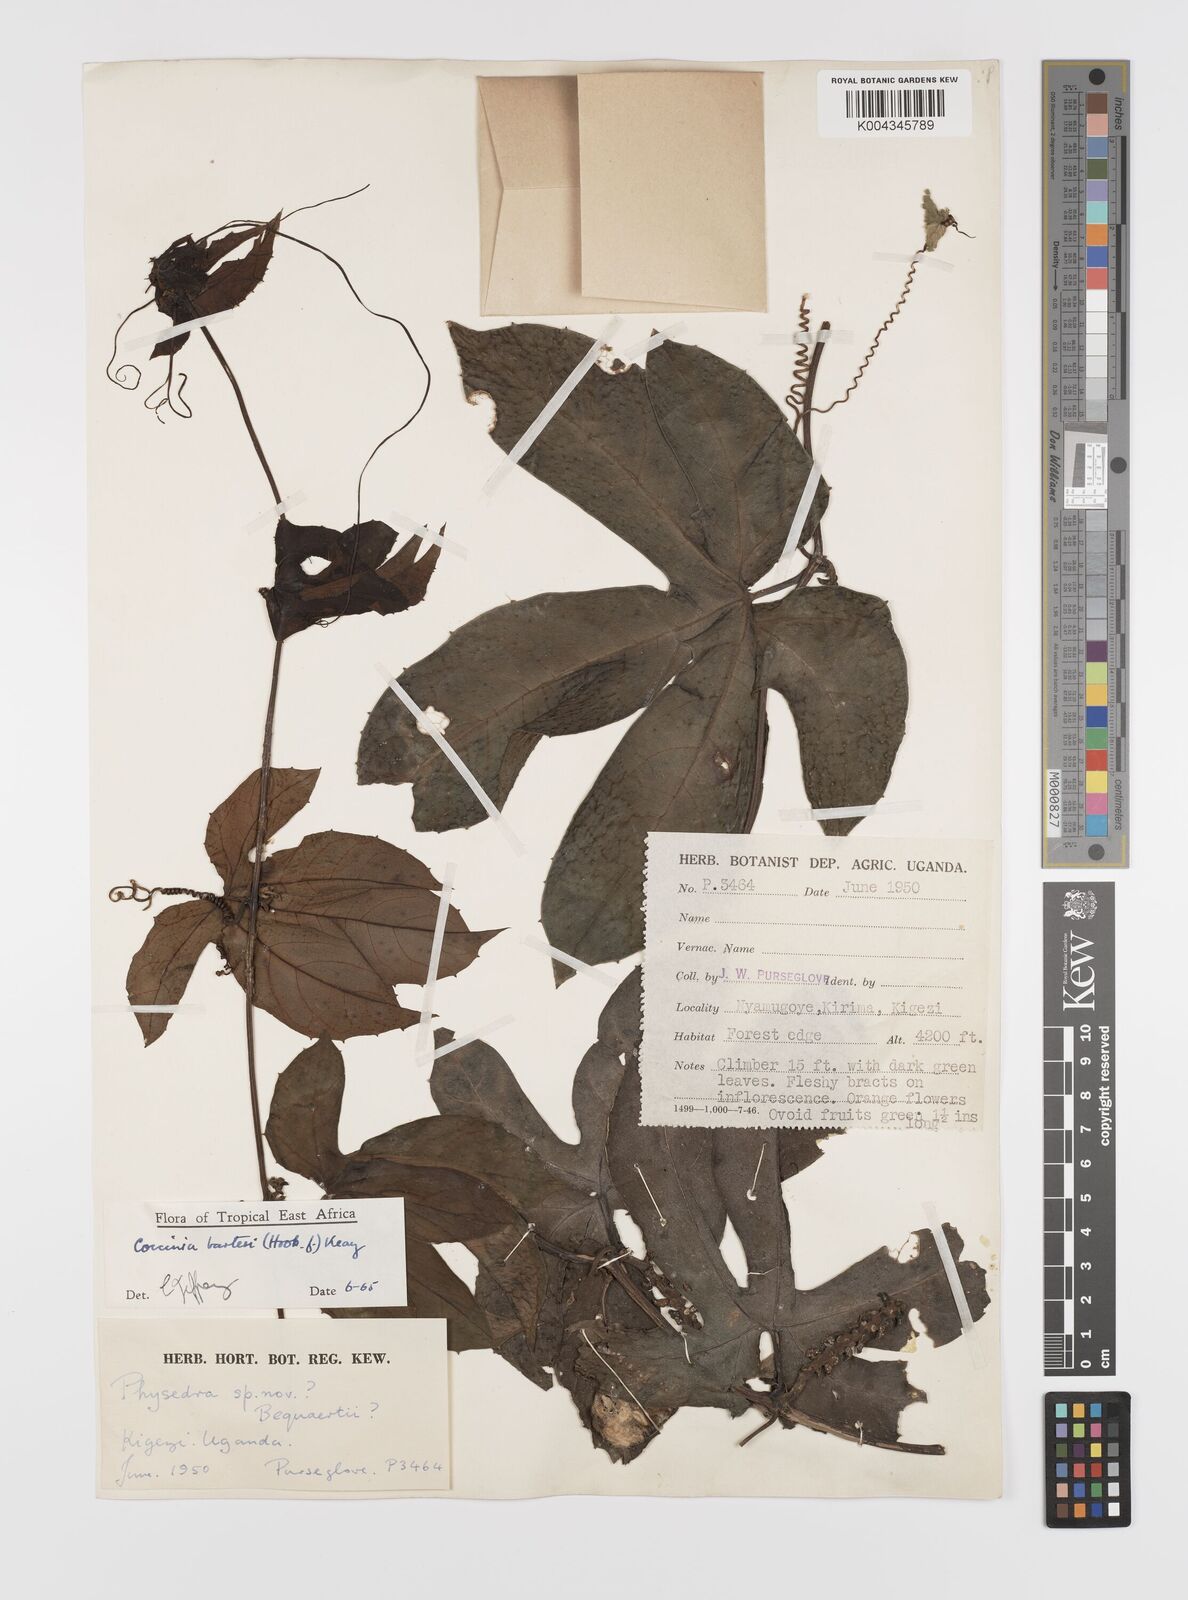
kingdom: Plantae
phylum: Tracheophyta
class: Magnoliopsida
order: Cucurbitales
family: Cucurbitaceae
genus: Coccinia
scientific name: Coccinia barteri
